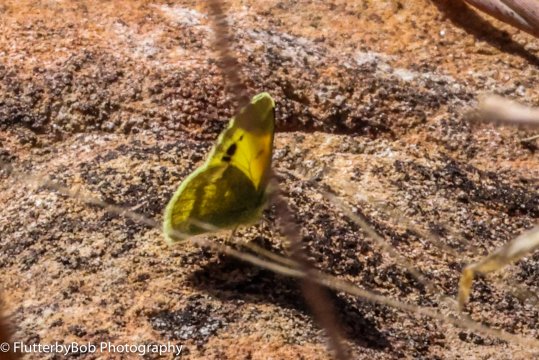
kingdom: Animalia
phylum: Arthropoda
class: Insecta
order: Lepidoptera
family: Pieridae
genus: Nathalis
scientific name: Nathalis iole
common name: Dainty Sulphur
